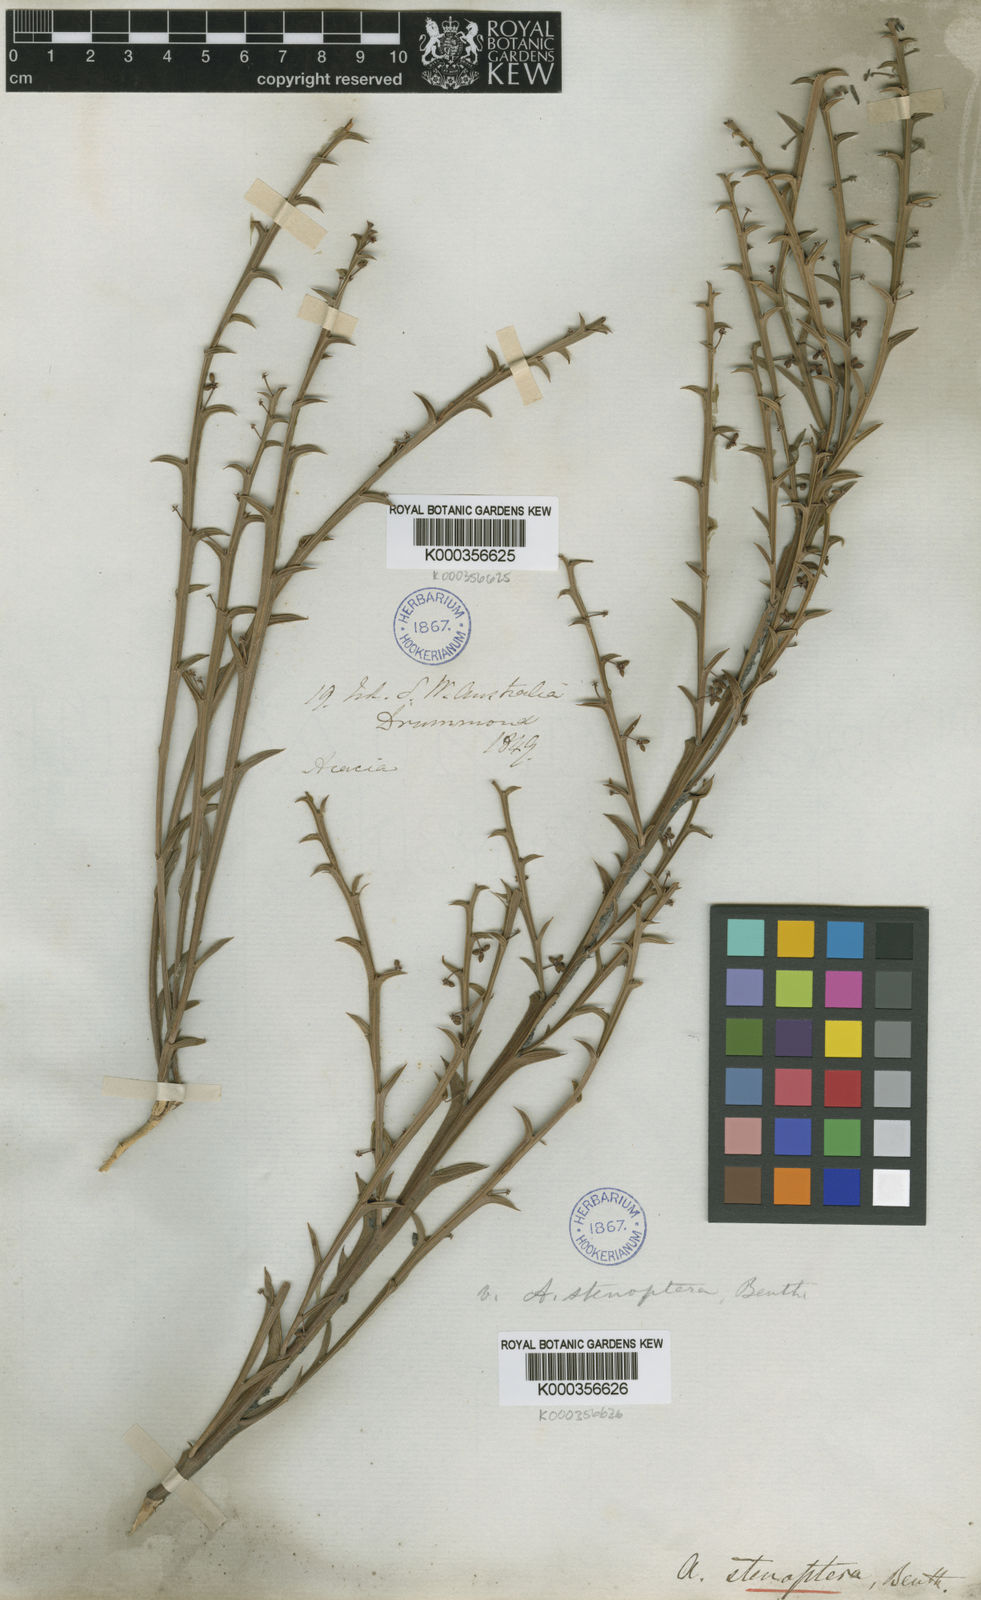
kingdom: Plantae
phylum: Tracheophyta
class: Magnoliopsida
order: Fabales
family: Fabaceae
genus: Acacia
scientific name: Acacia stenoptera
